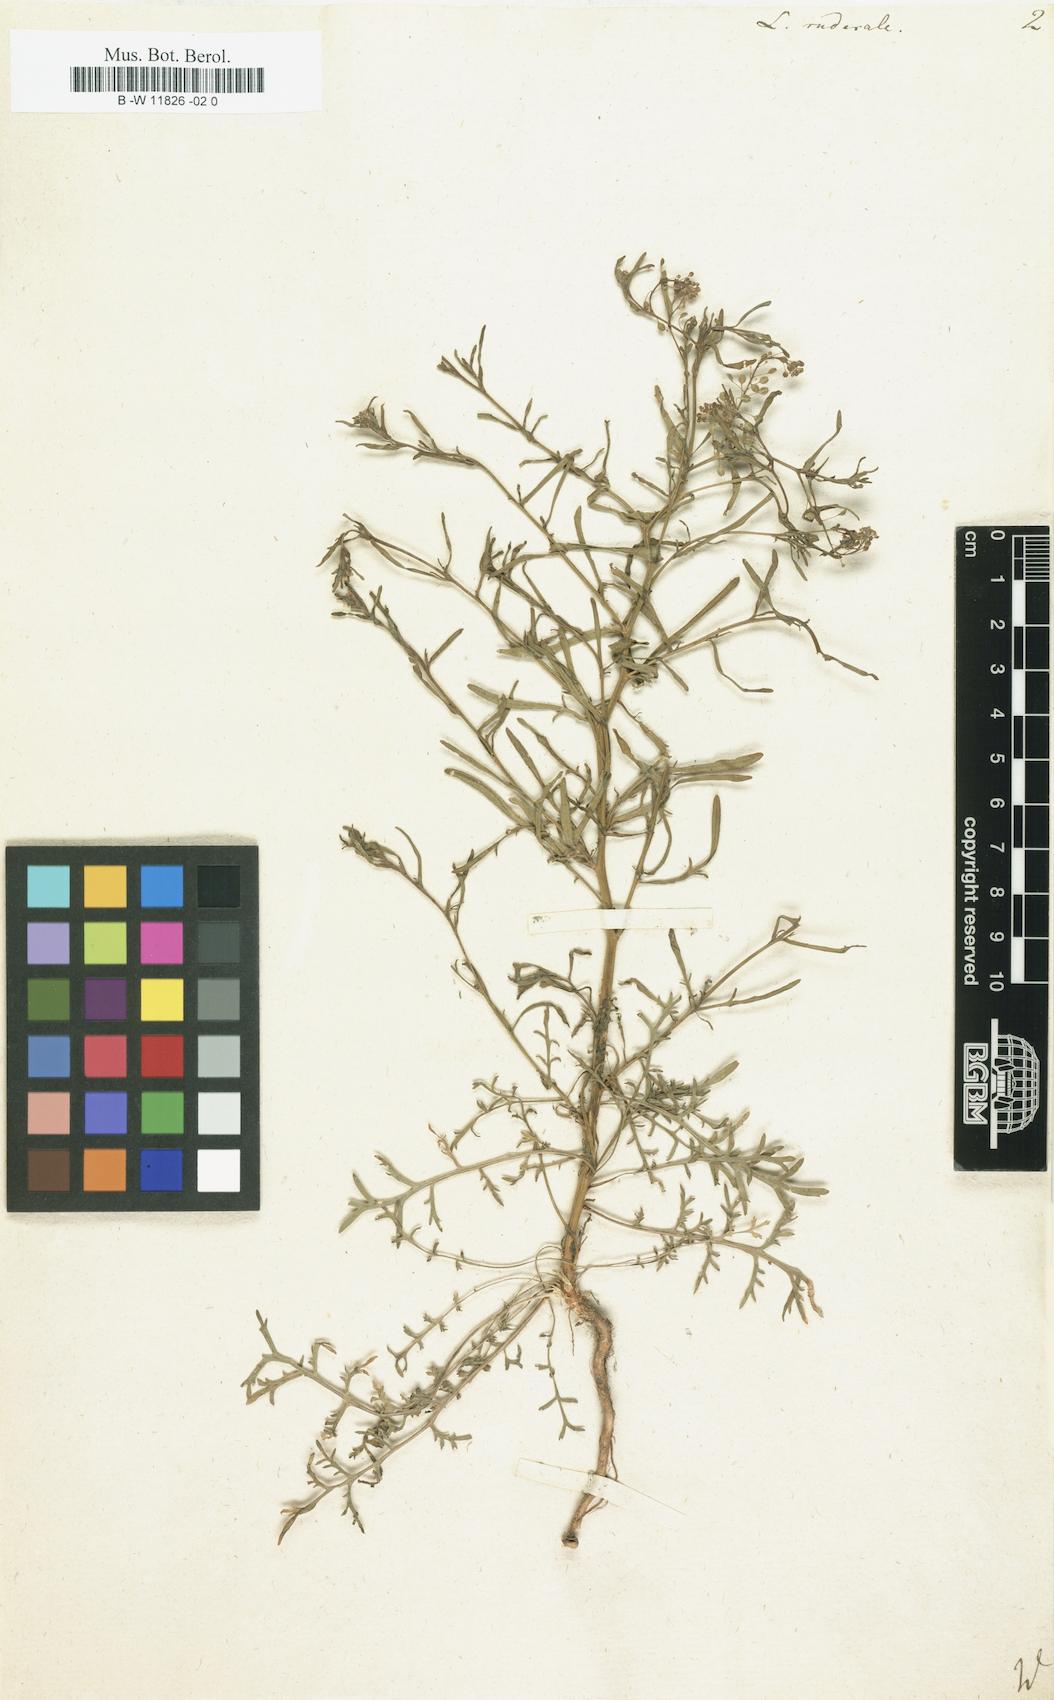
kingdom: Plantae
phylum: Tracheophyta
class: Magnoliopsida
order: Brassicales
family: Brassicaceae
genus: Lepidium
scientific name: Lepidium ruderale
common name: Narrow-leaved pepperwort
